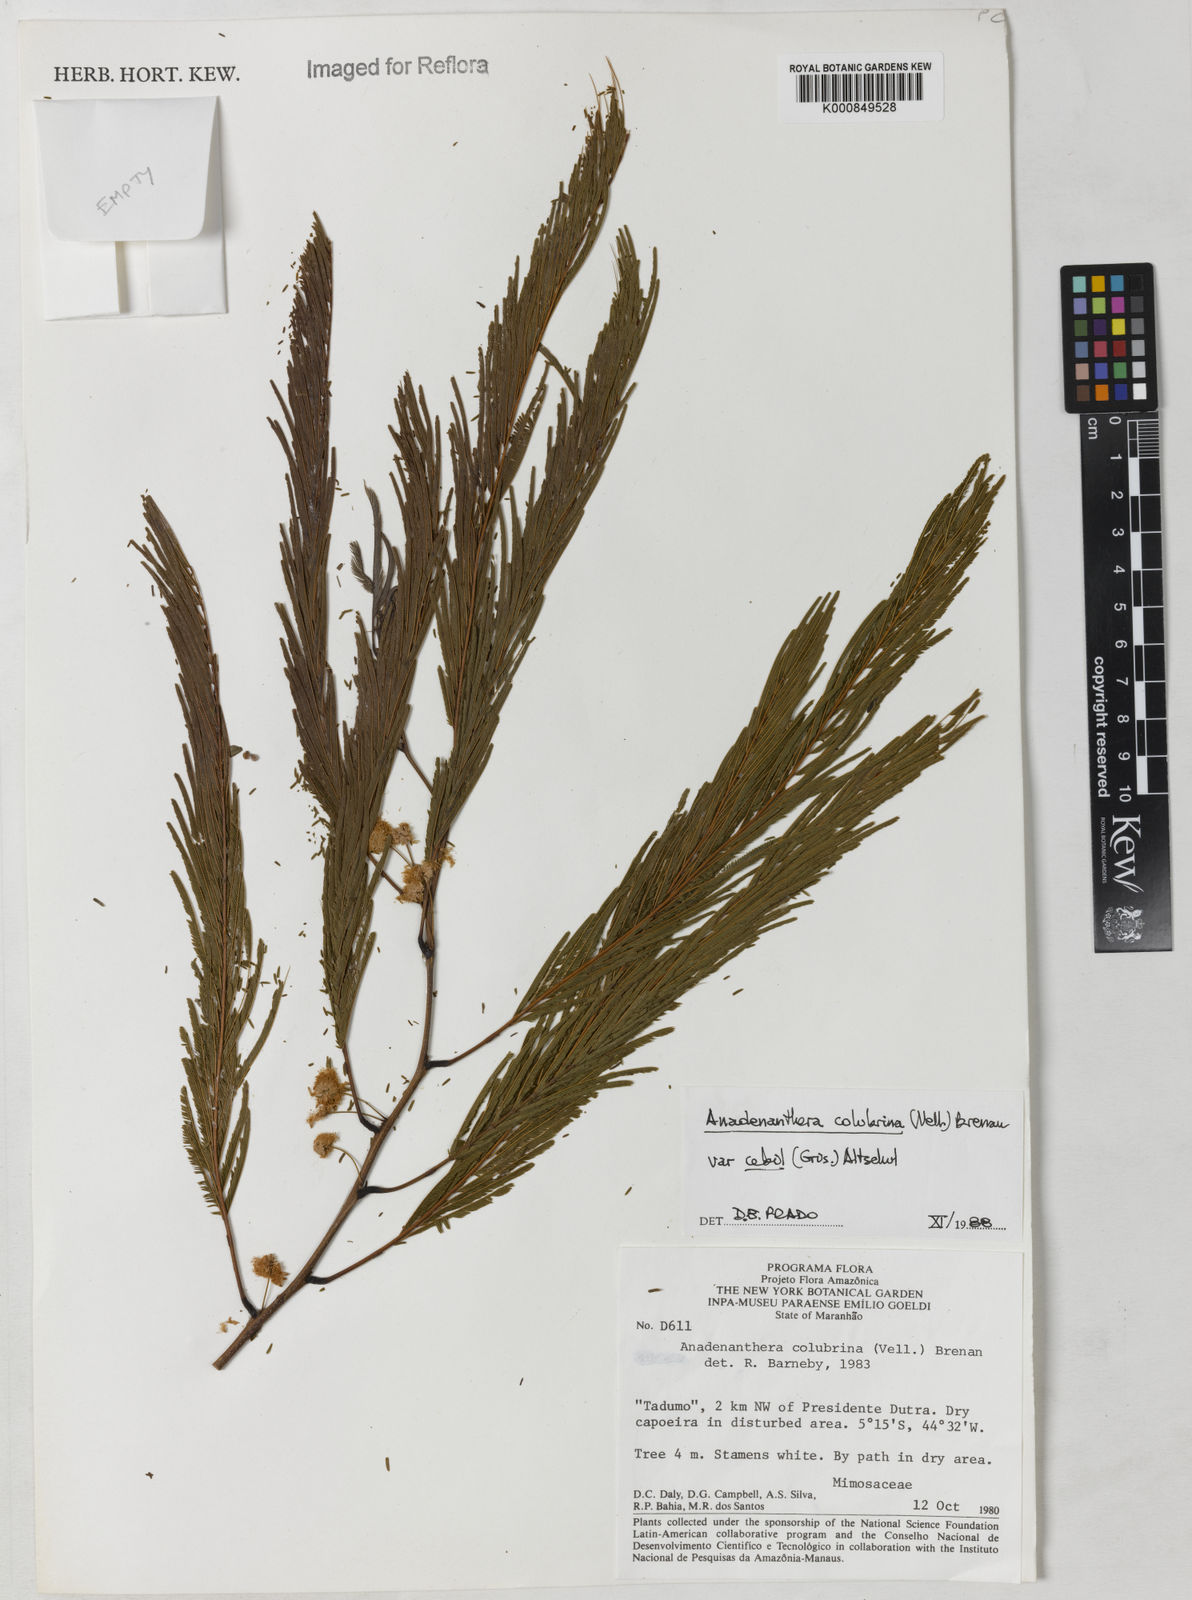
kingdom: Plantae
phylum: Tracheophyta
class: Magnoliopsida
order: Fabales
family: Fabaceae
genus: Anadenanthera
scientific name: Anadenanthera colubrina
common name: Curupay
